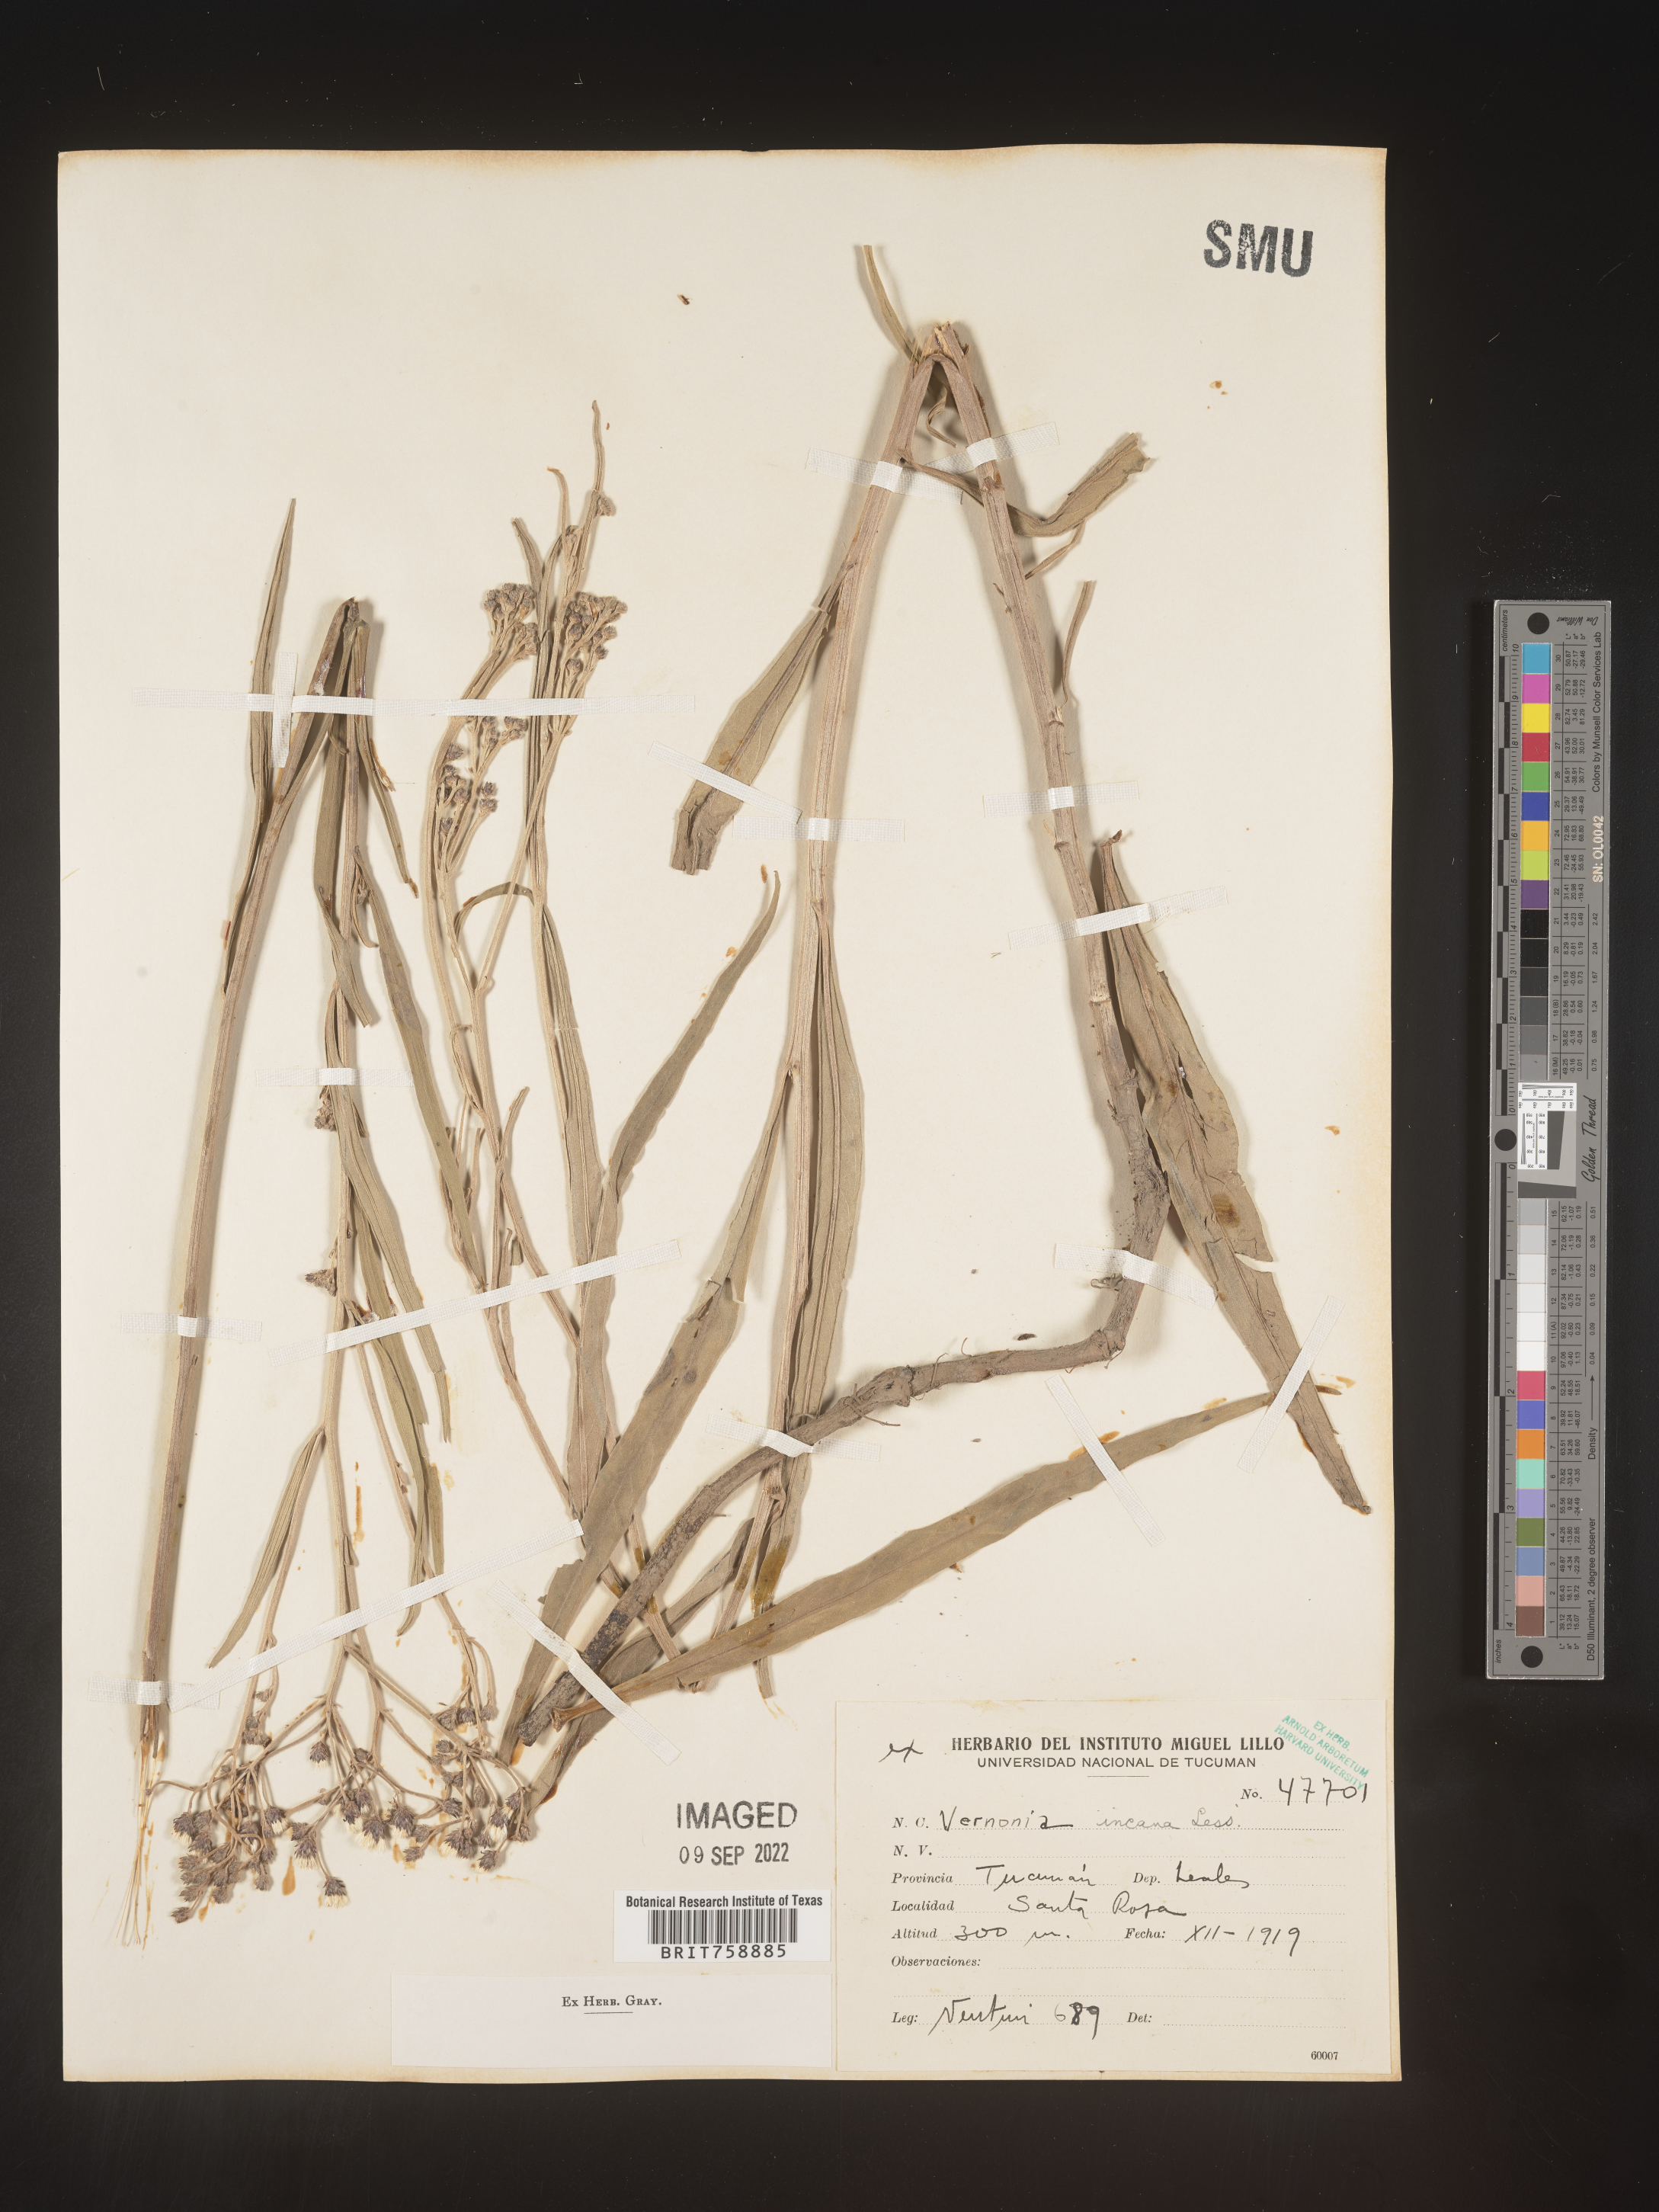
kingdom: Plantae
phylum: Tracheophyta
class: Magnoliopsida
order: Asterales
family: Asteraceae
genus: Vernonia
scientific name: Vernonia
